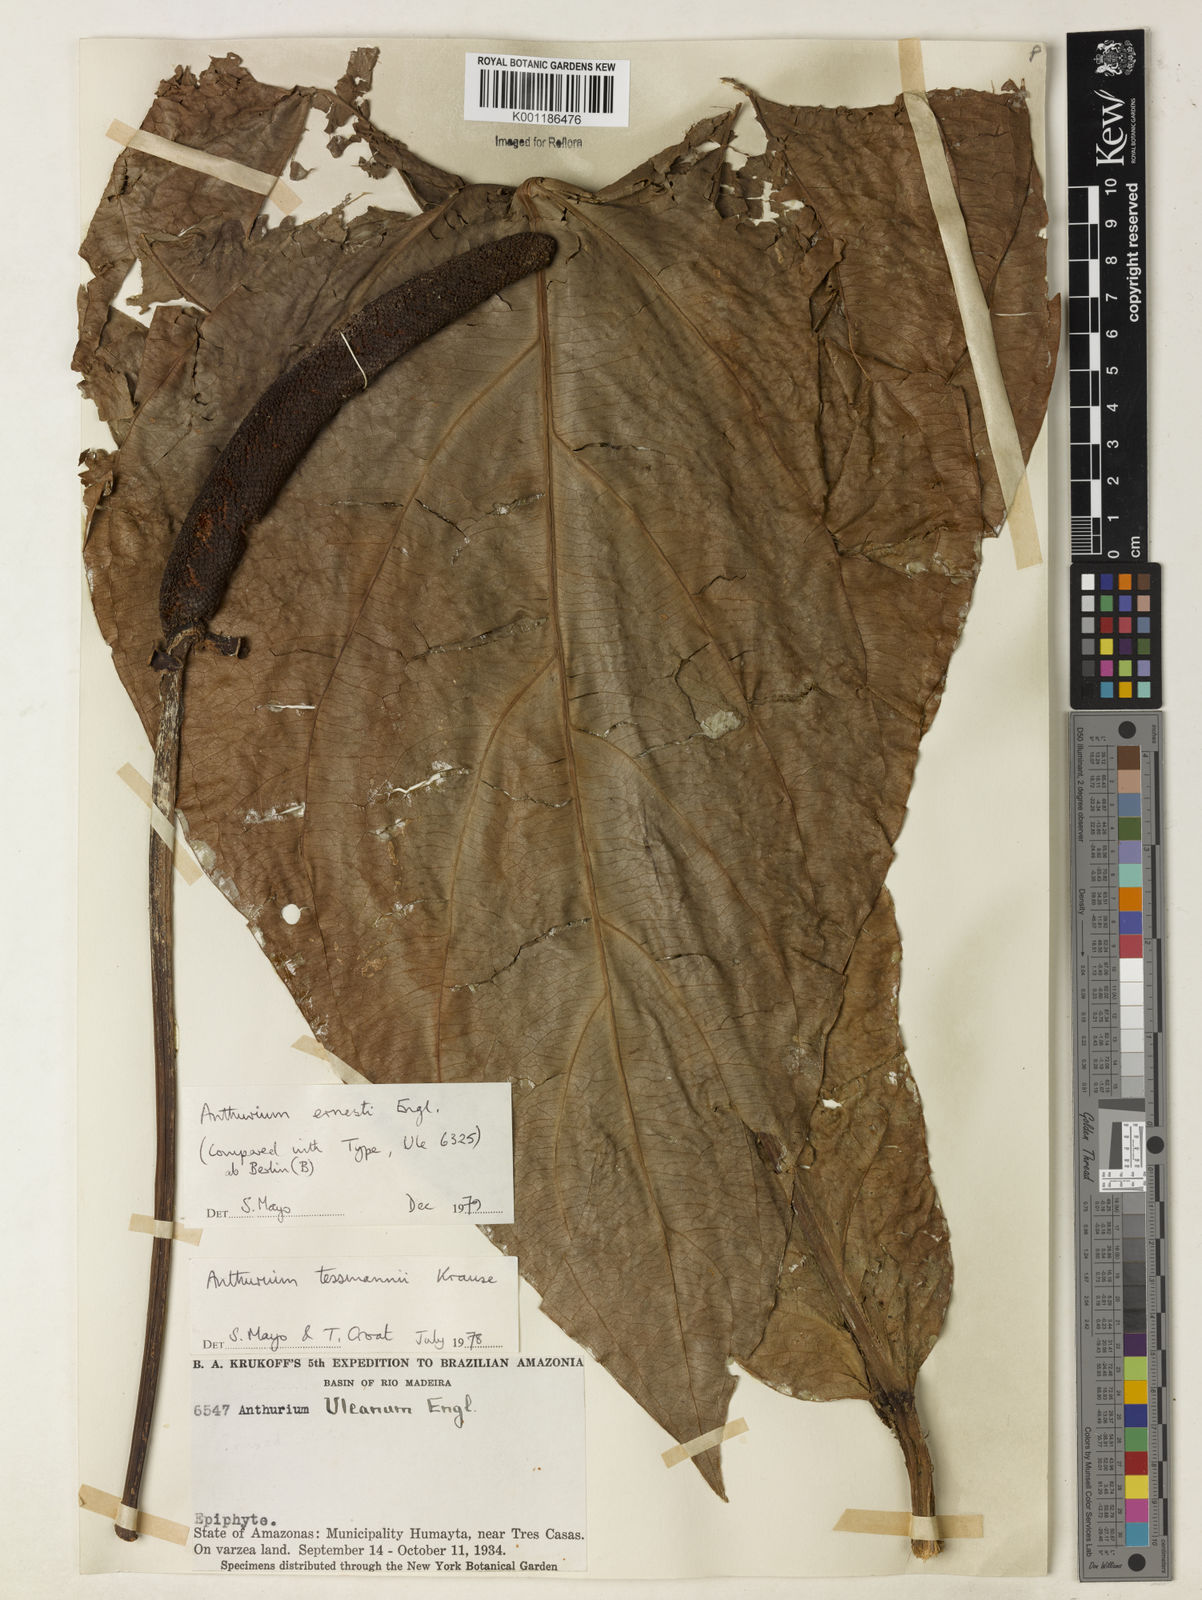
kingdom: Plantae
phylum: Tracheophyta
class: Liliopsida
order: Alismatales
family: Araceae
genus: Anthurium
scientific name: Anthurium ernesti
